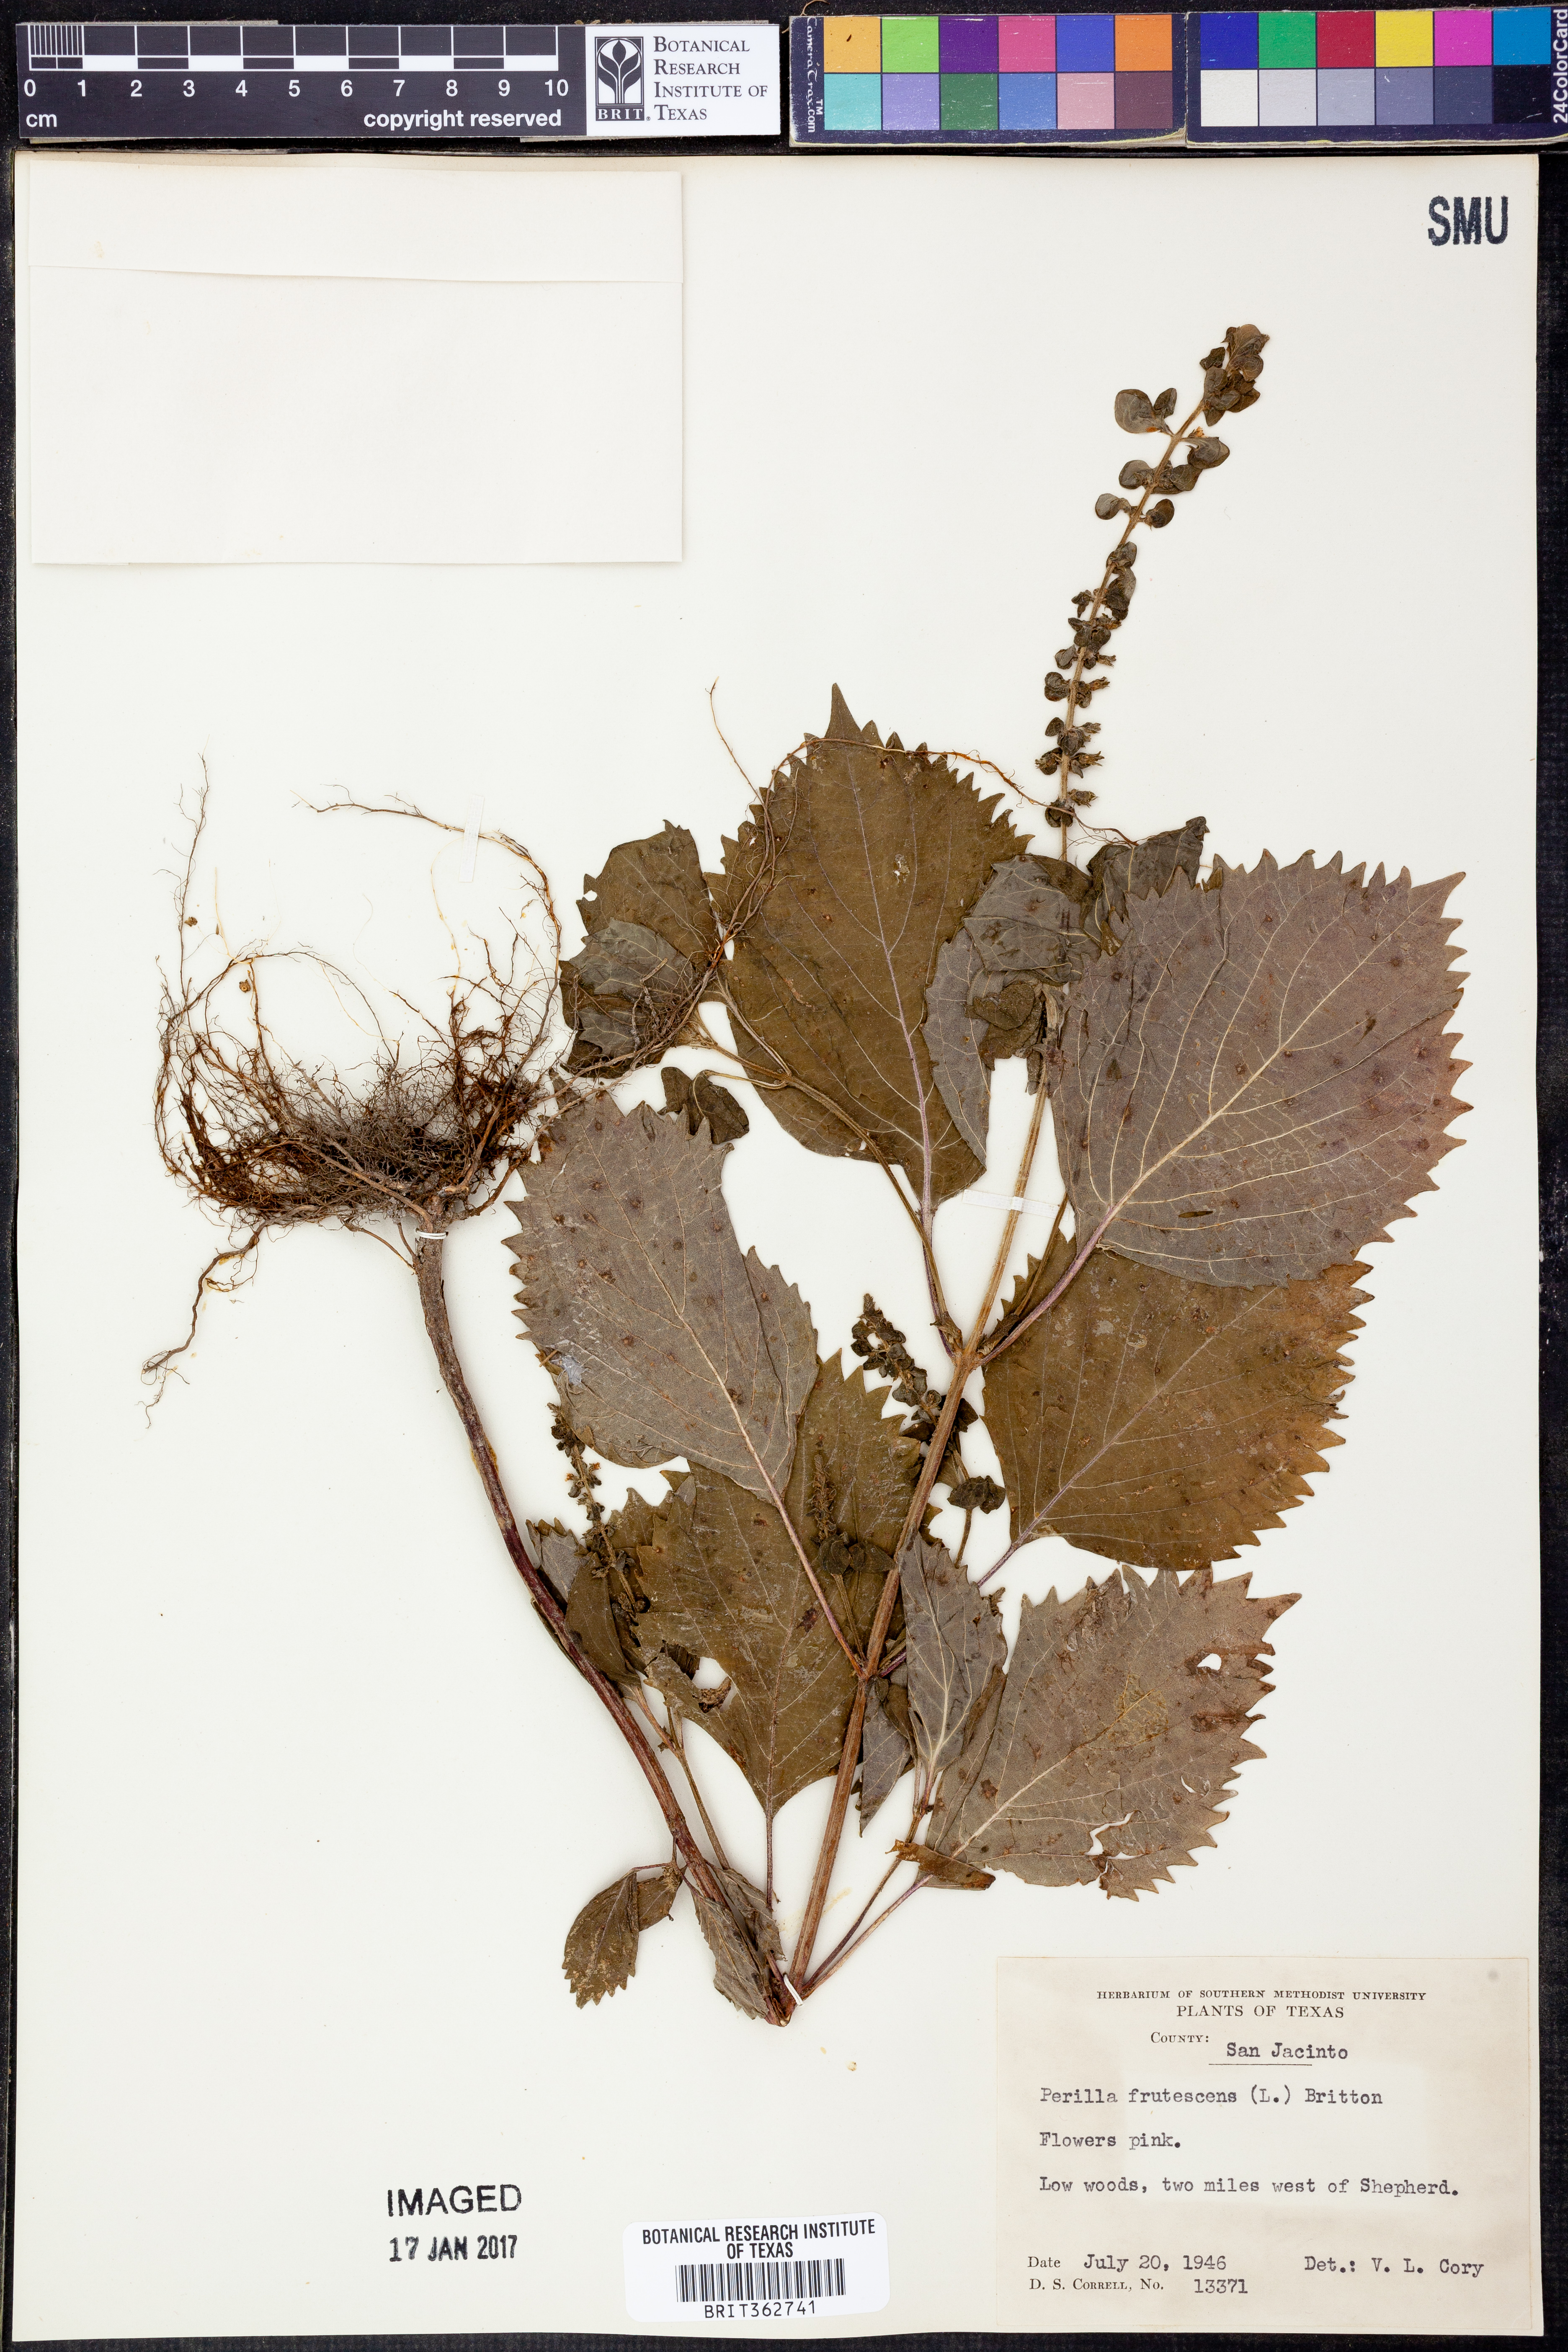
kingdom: Plantae
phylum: Tracheophyta
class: Magnoliopsida
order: Lamiales
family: Lamiaceae
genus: Perilla
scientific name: Perilla frutescens
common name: Perilla
